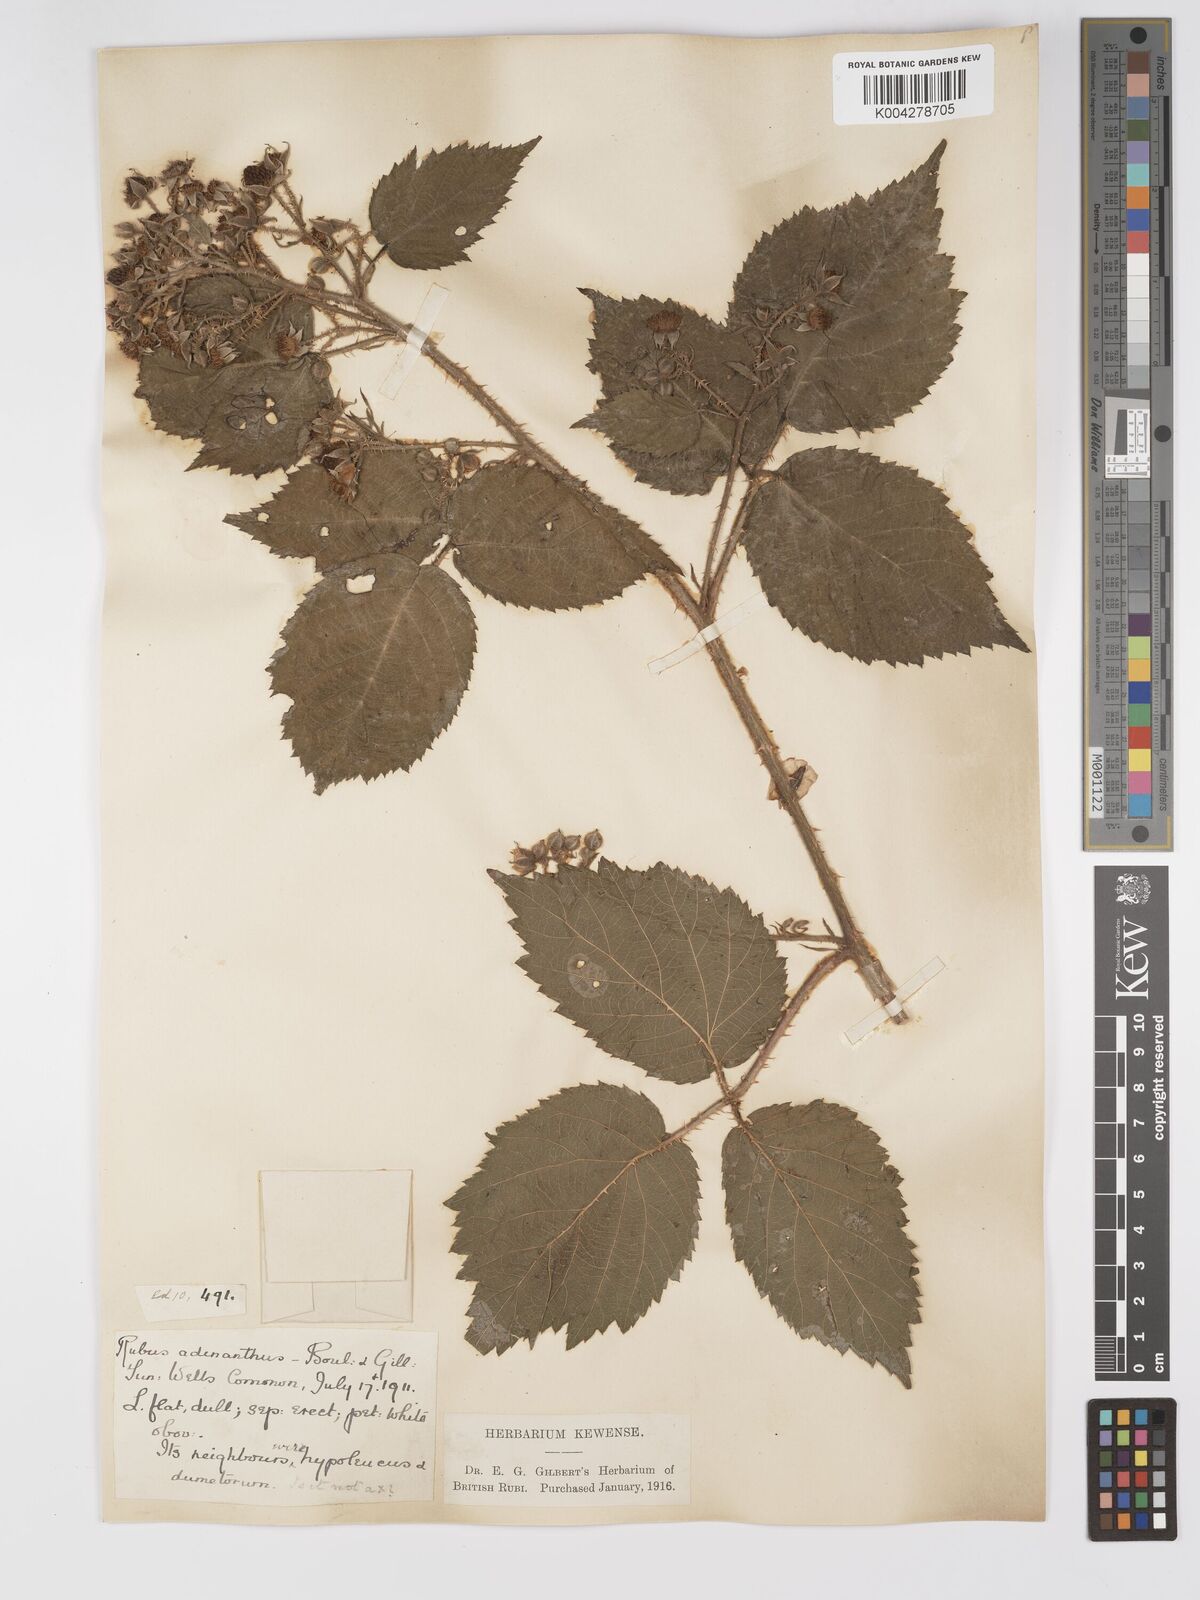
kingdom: Plantae
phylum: Tracheophyta
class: Magnoliopsida
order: Rosales
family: Rosaceae
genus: Rubus
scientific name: Rubus swinhoei
